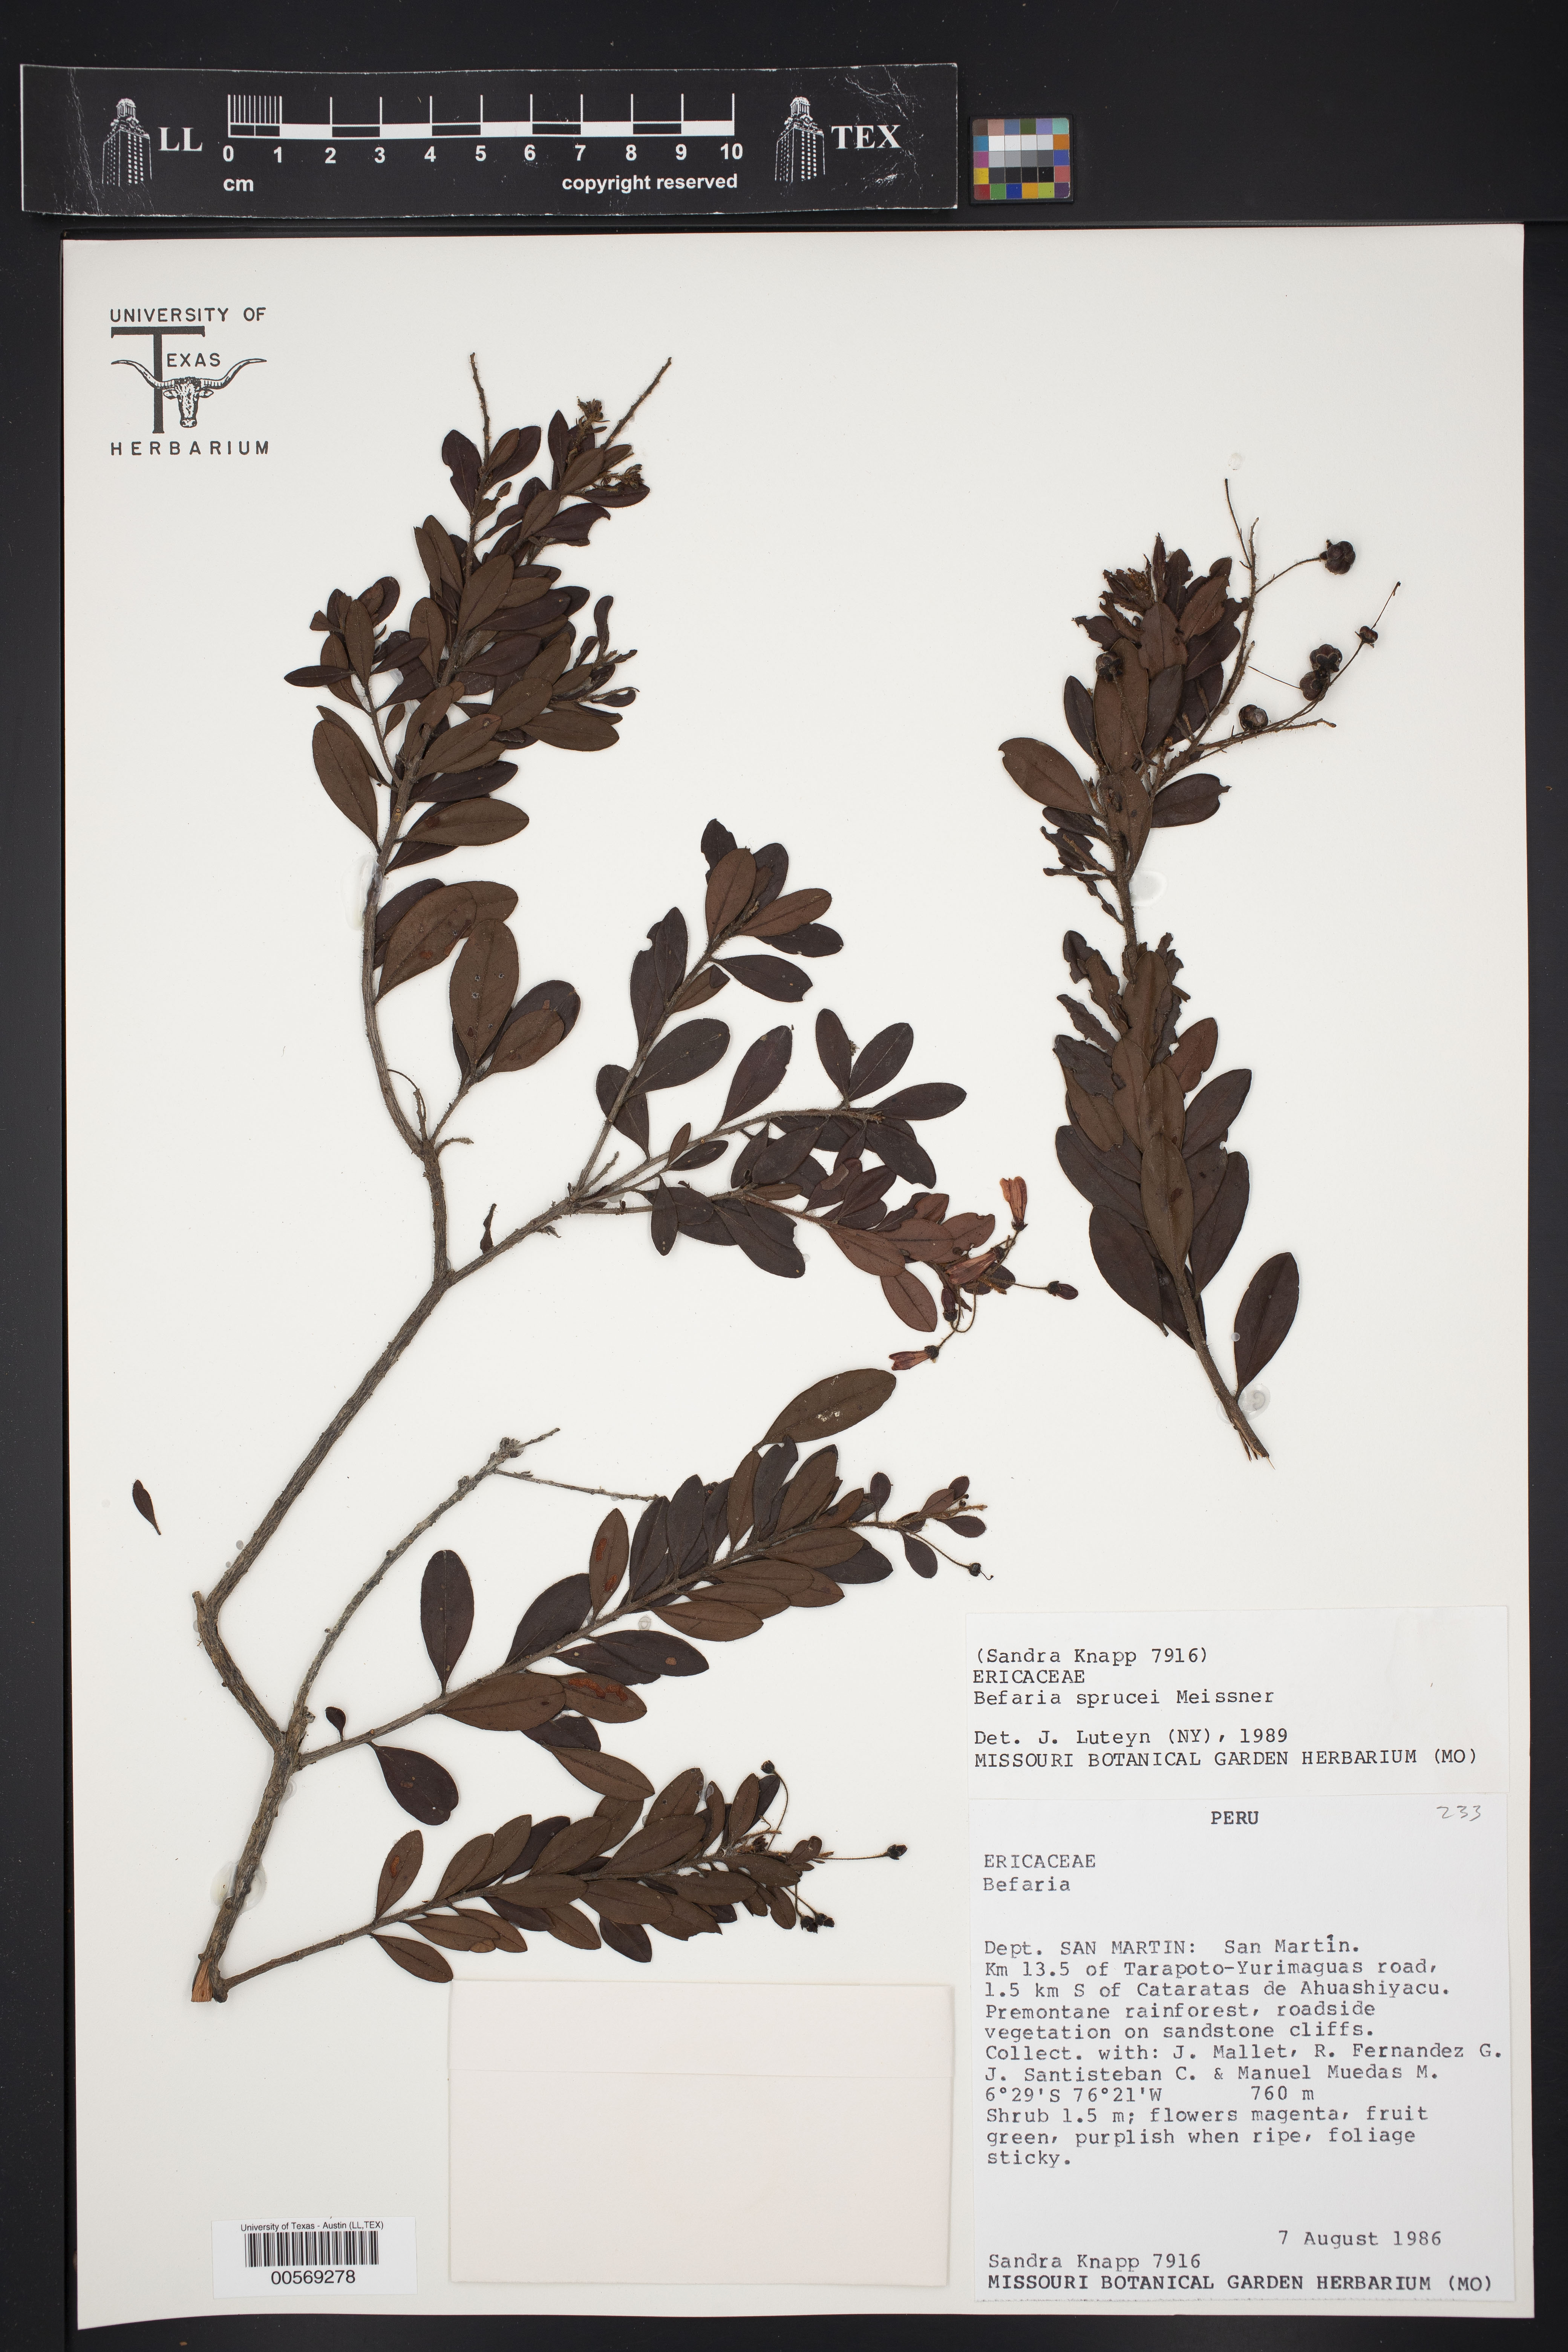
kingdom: Plantae
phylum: Tracheophyta
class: Magnoliopsida
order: Ericales
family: Ericaceae
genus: Bejaria
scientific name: Bejaria sprucei
